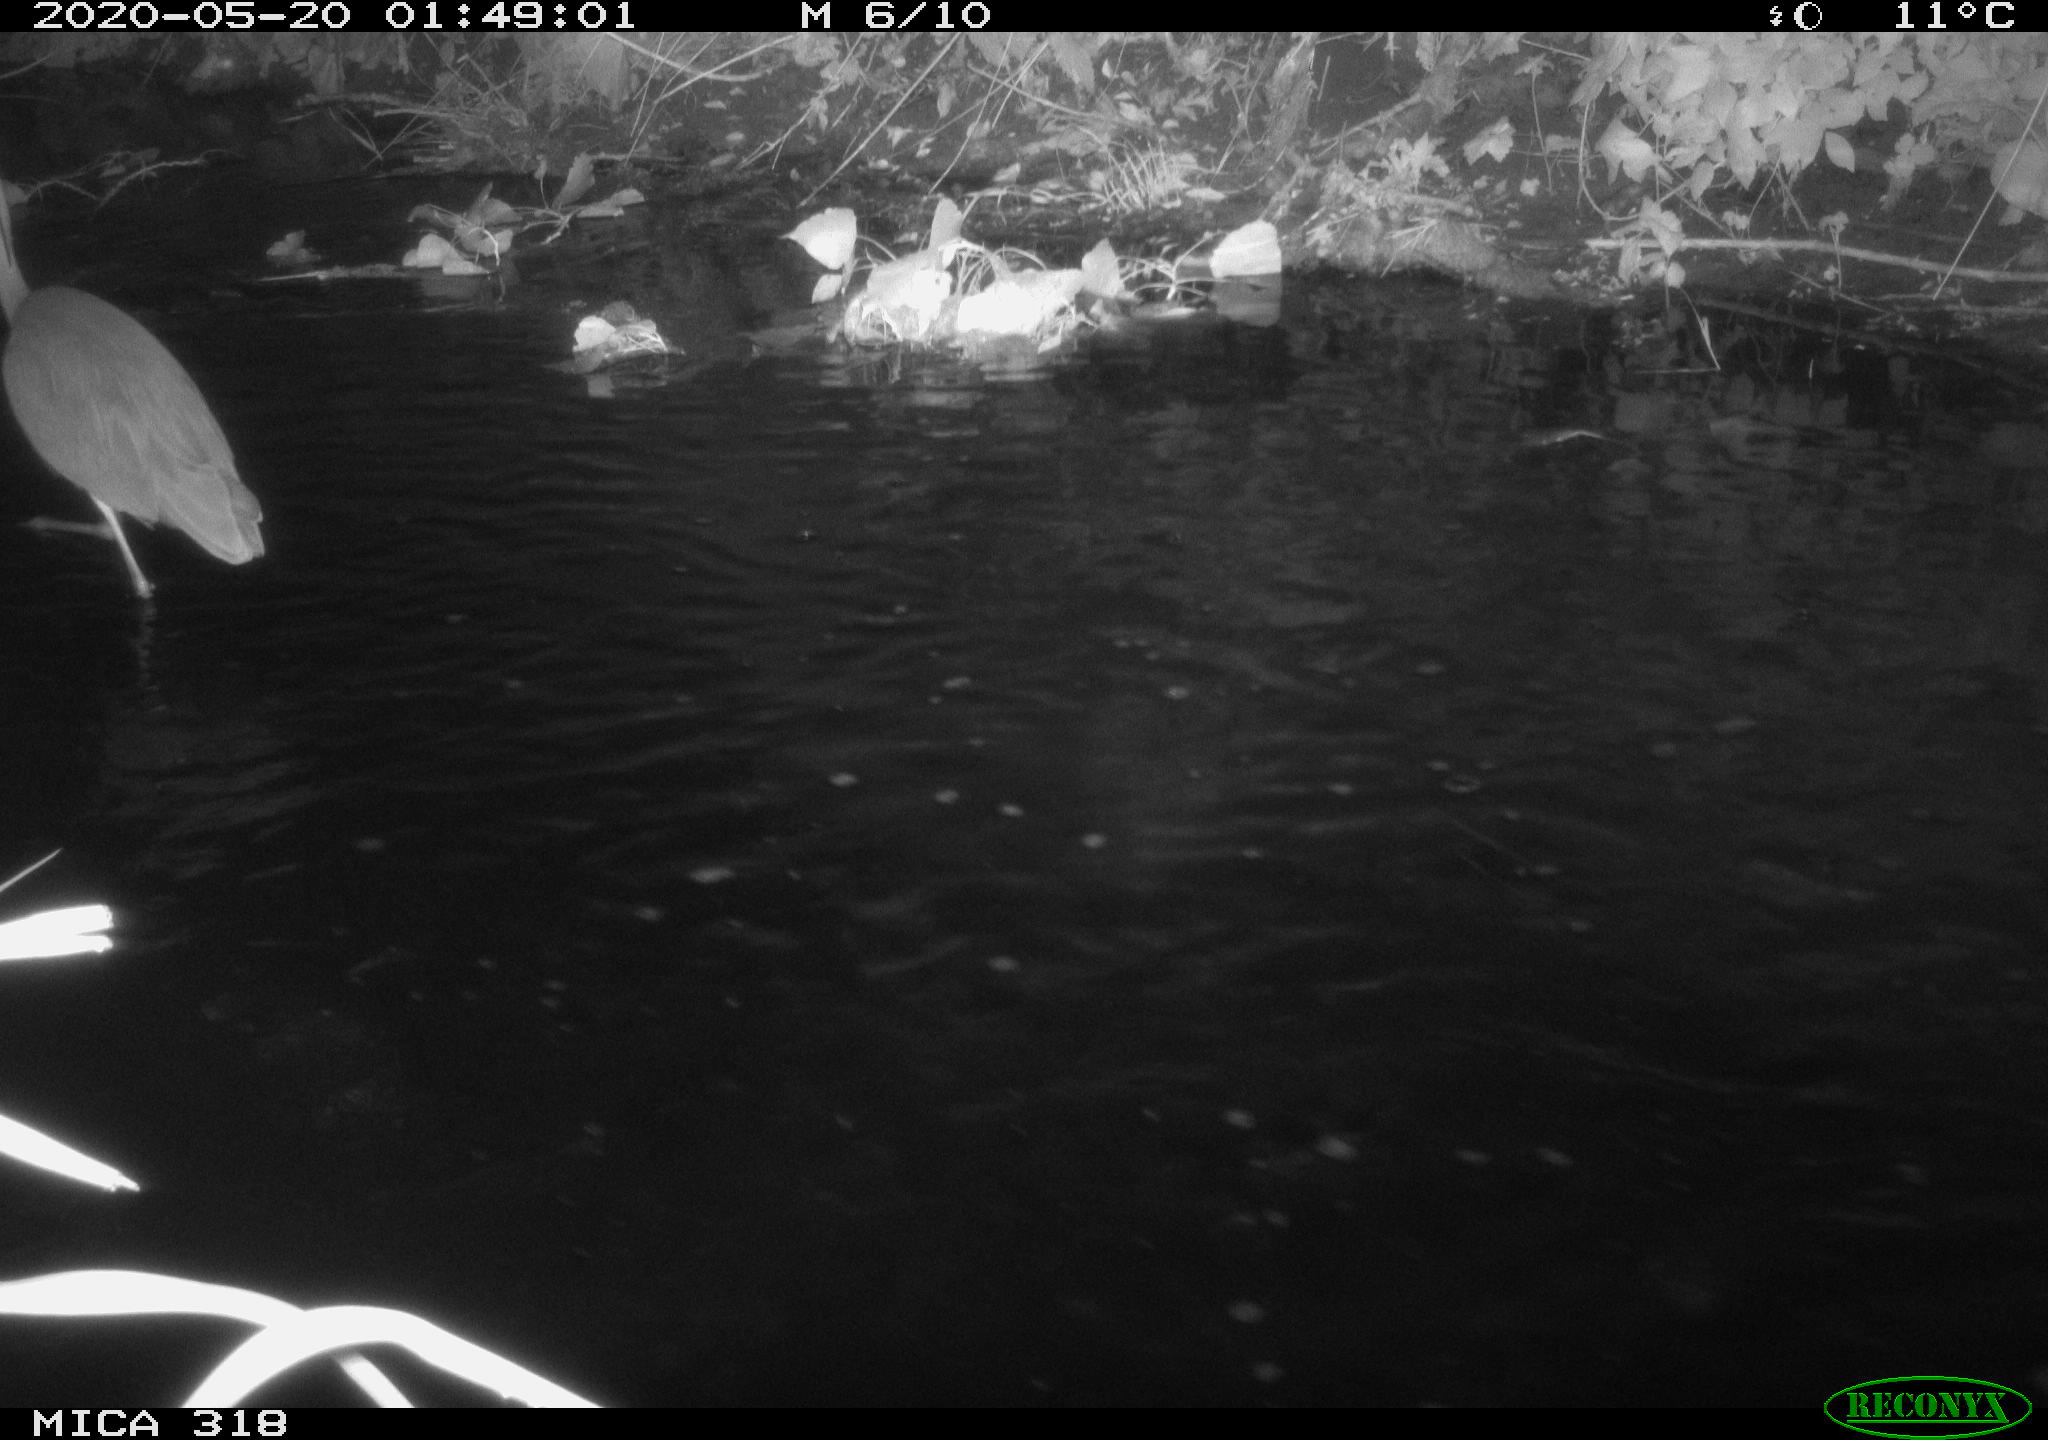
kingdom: Animalia
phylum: Chordata
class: Aves
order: Pelecaniformes
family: Ardeidae
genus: Ardea
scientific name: Ardea cinerea
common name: Grey heron
